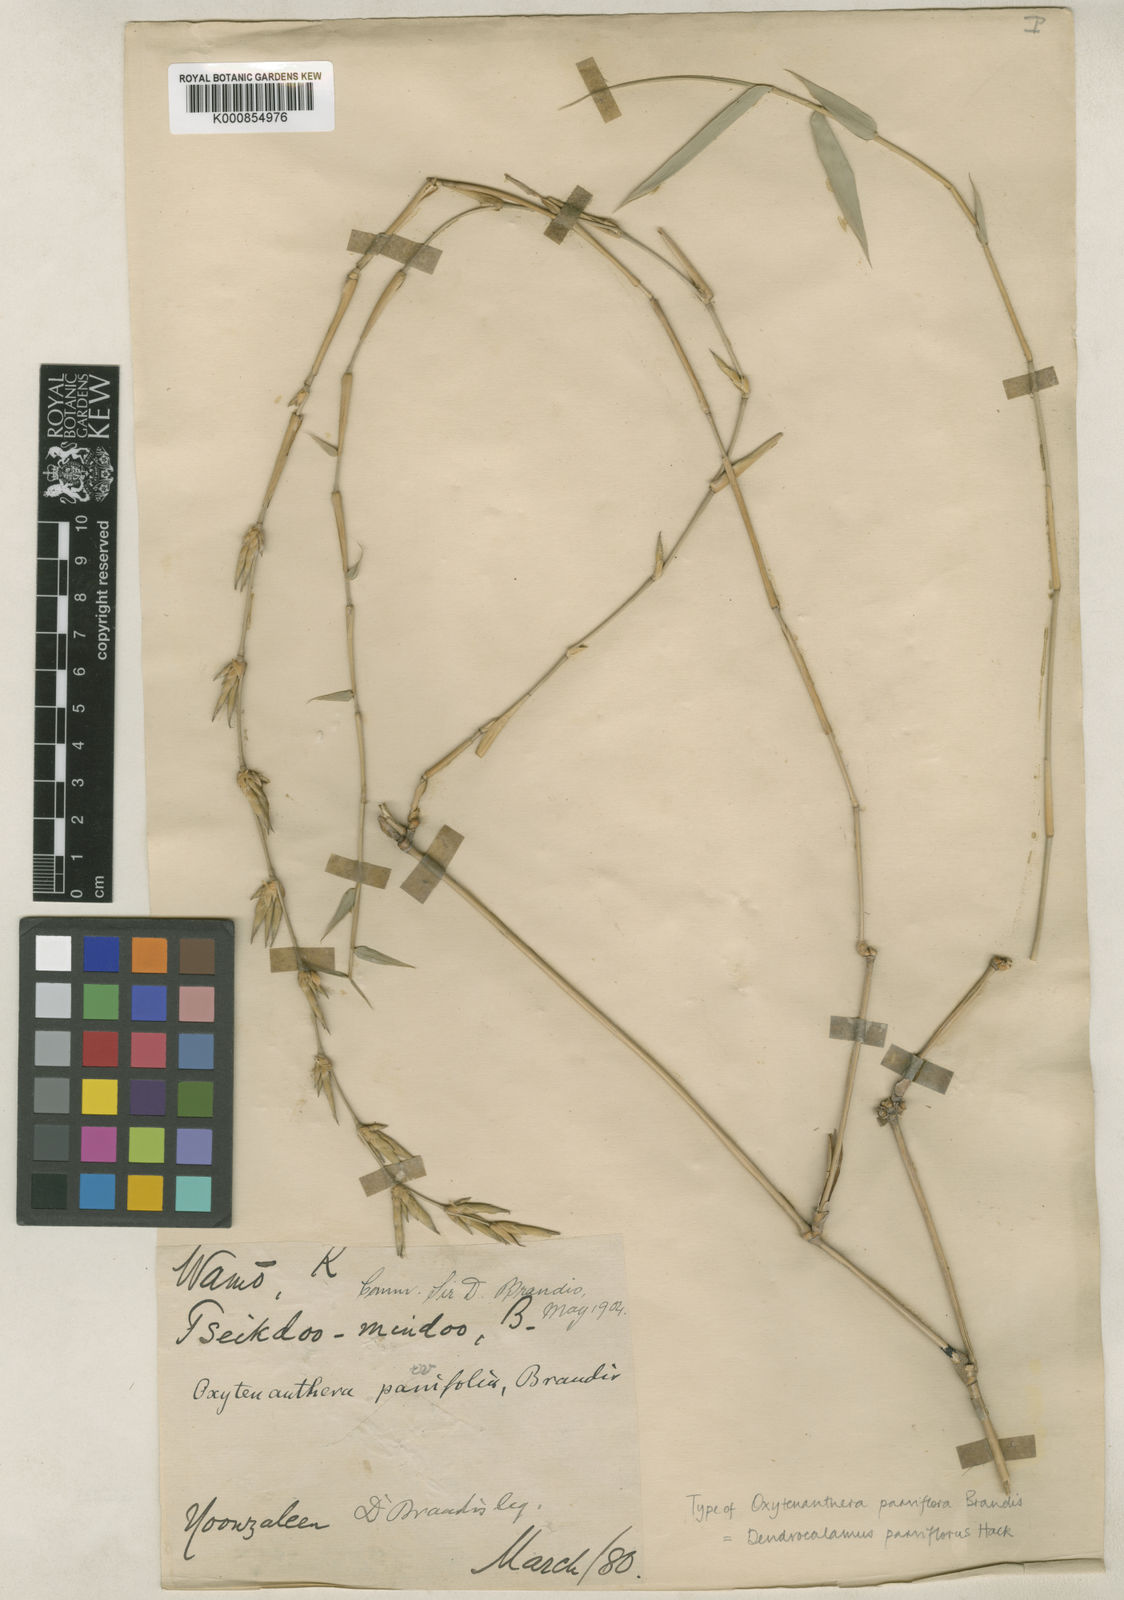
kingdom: Plantae
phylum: Tracheophyta
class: Liliopsida
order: Poales
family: Poaceae
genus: Dendrocalamus
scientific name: Dendrocalamus merrillianus
